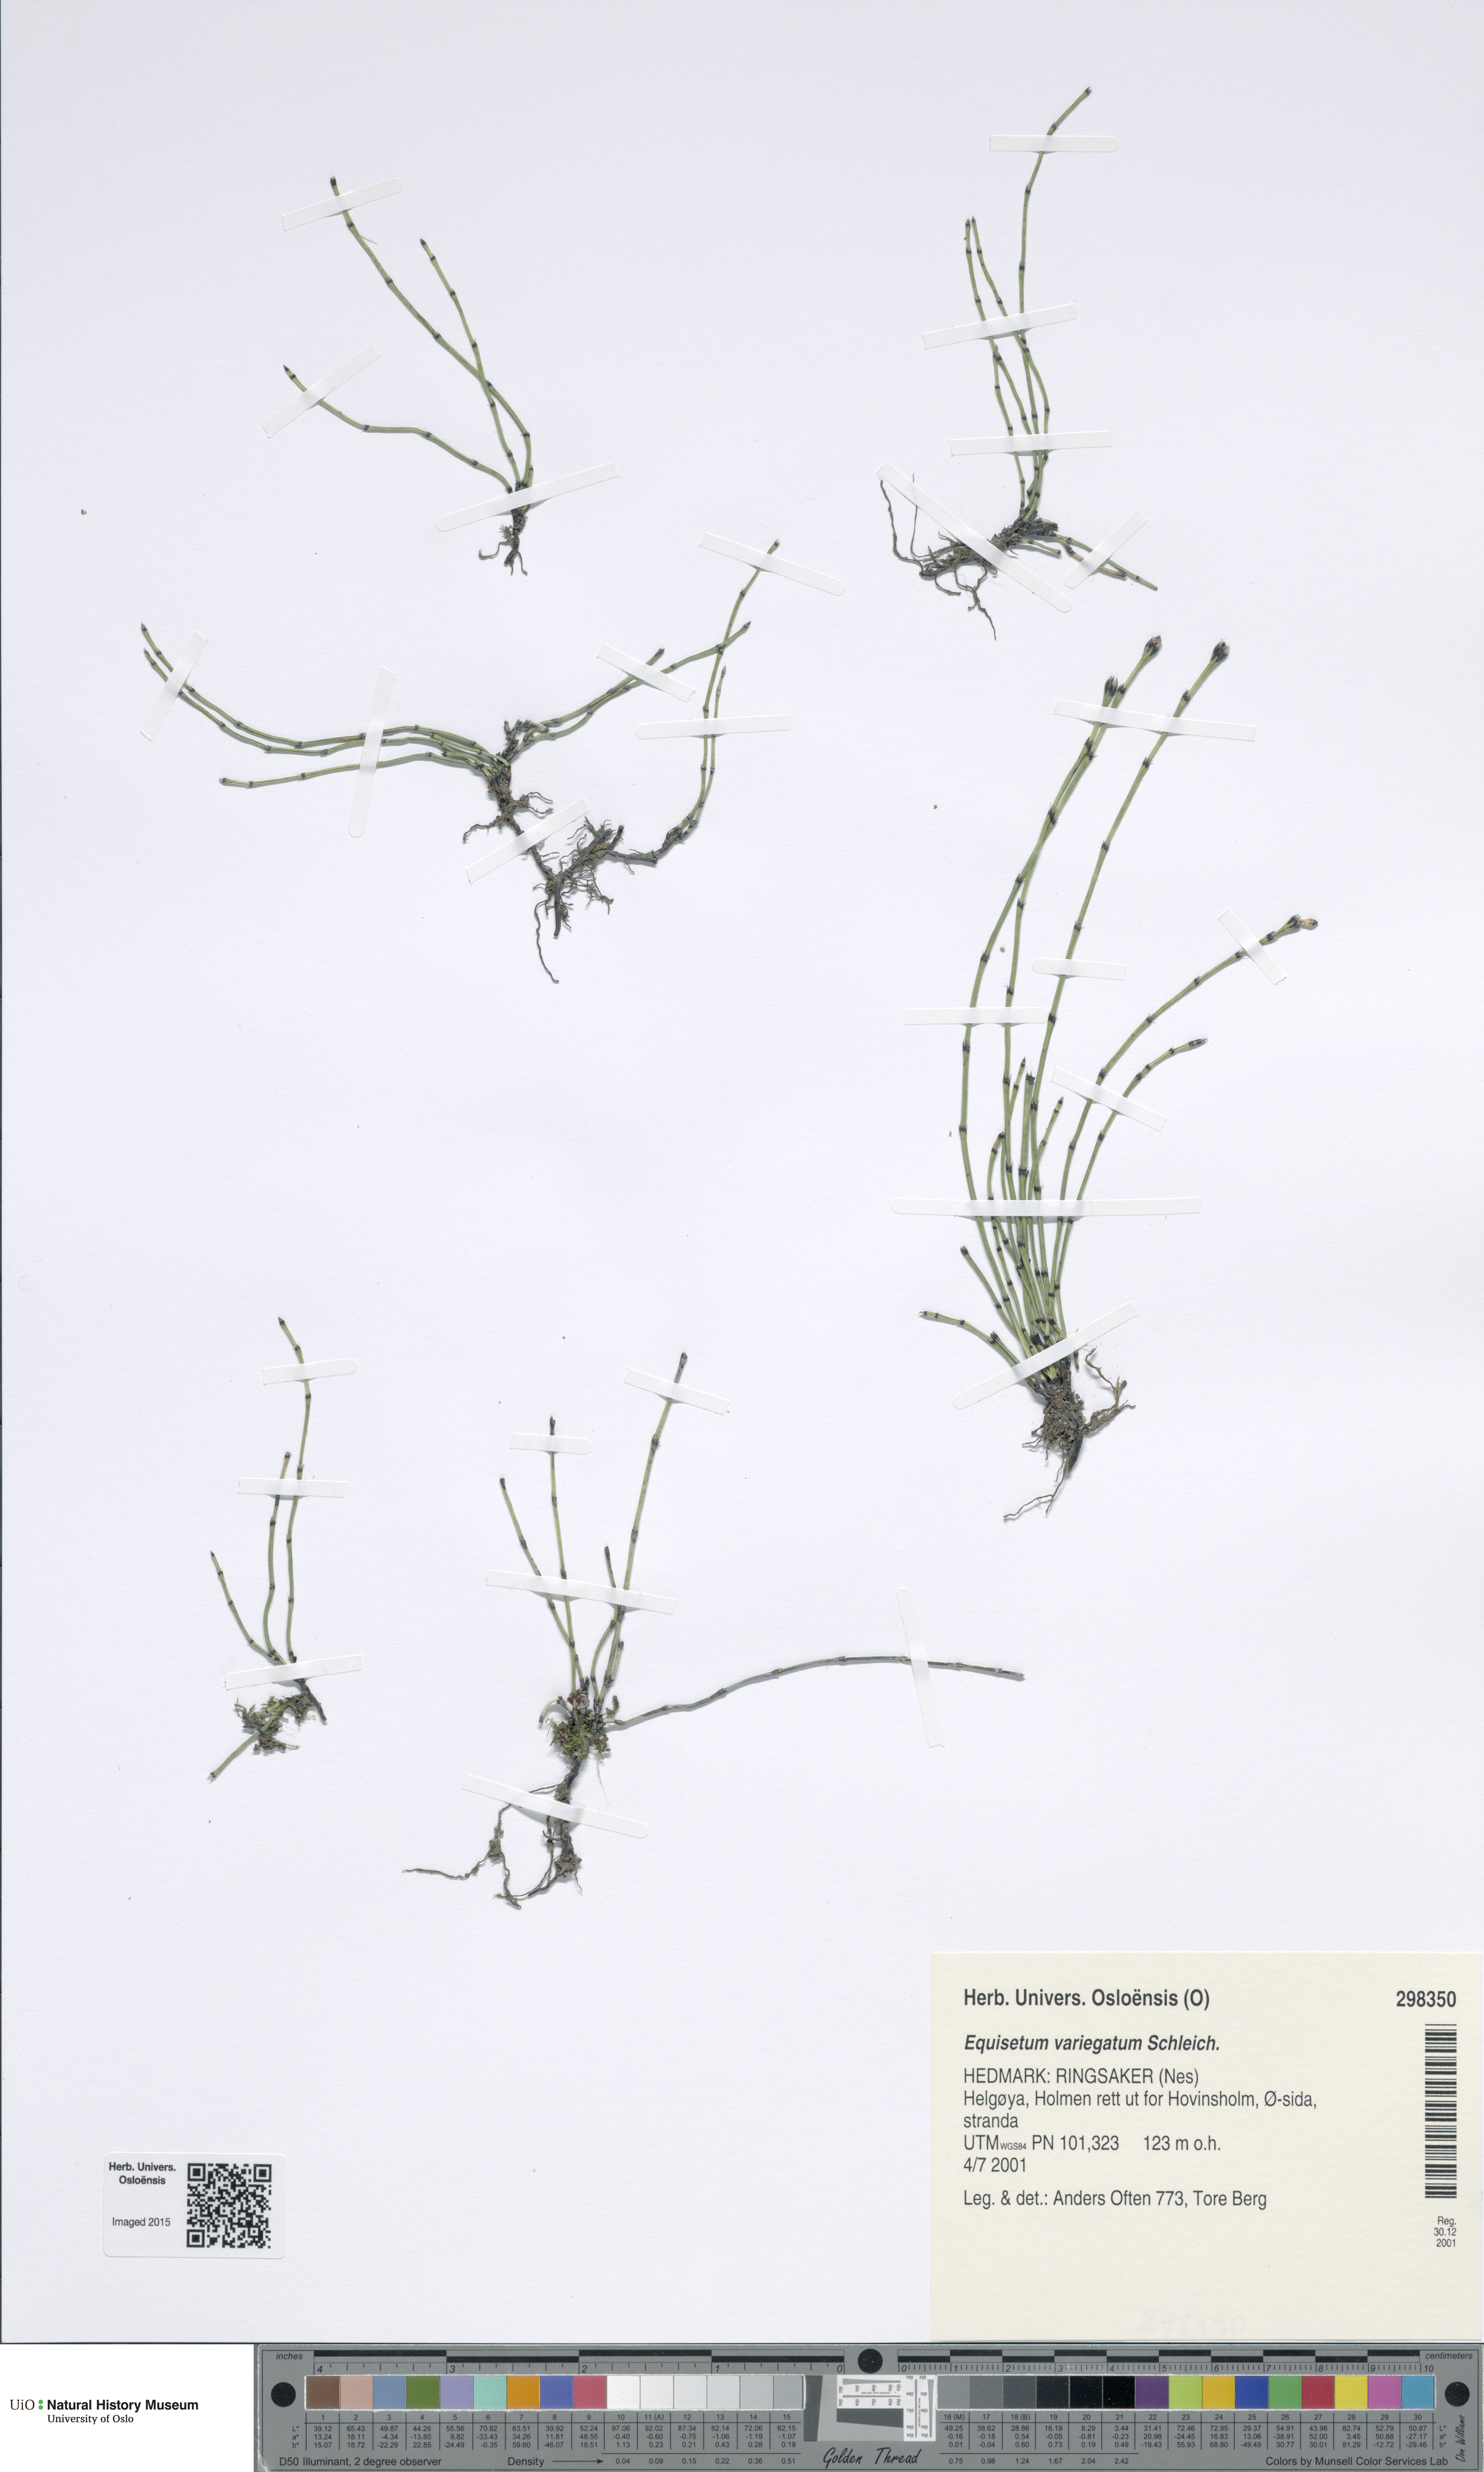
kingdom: Plantae
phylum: Tracheophyta
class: Polypodiopsida
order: Equisetales
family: Equisetaceae
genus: Equisetum
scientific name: Equisetum variegatum
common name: Variegated horsetail
